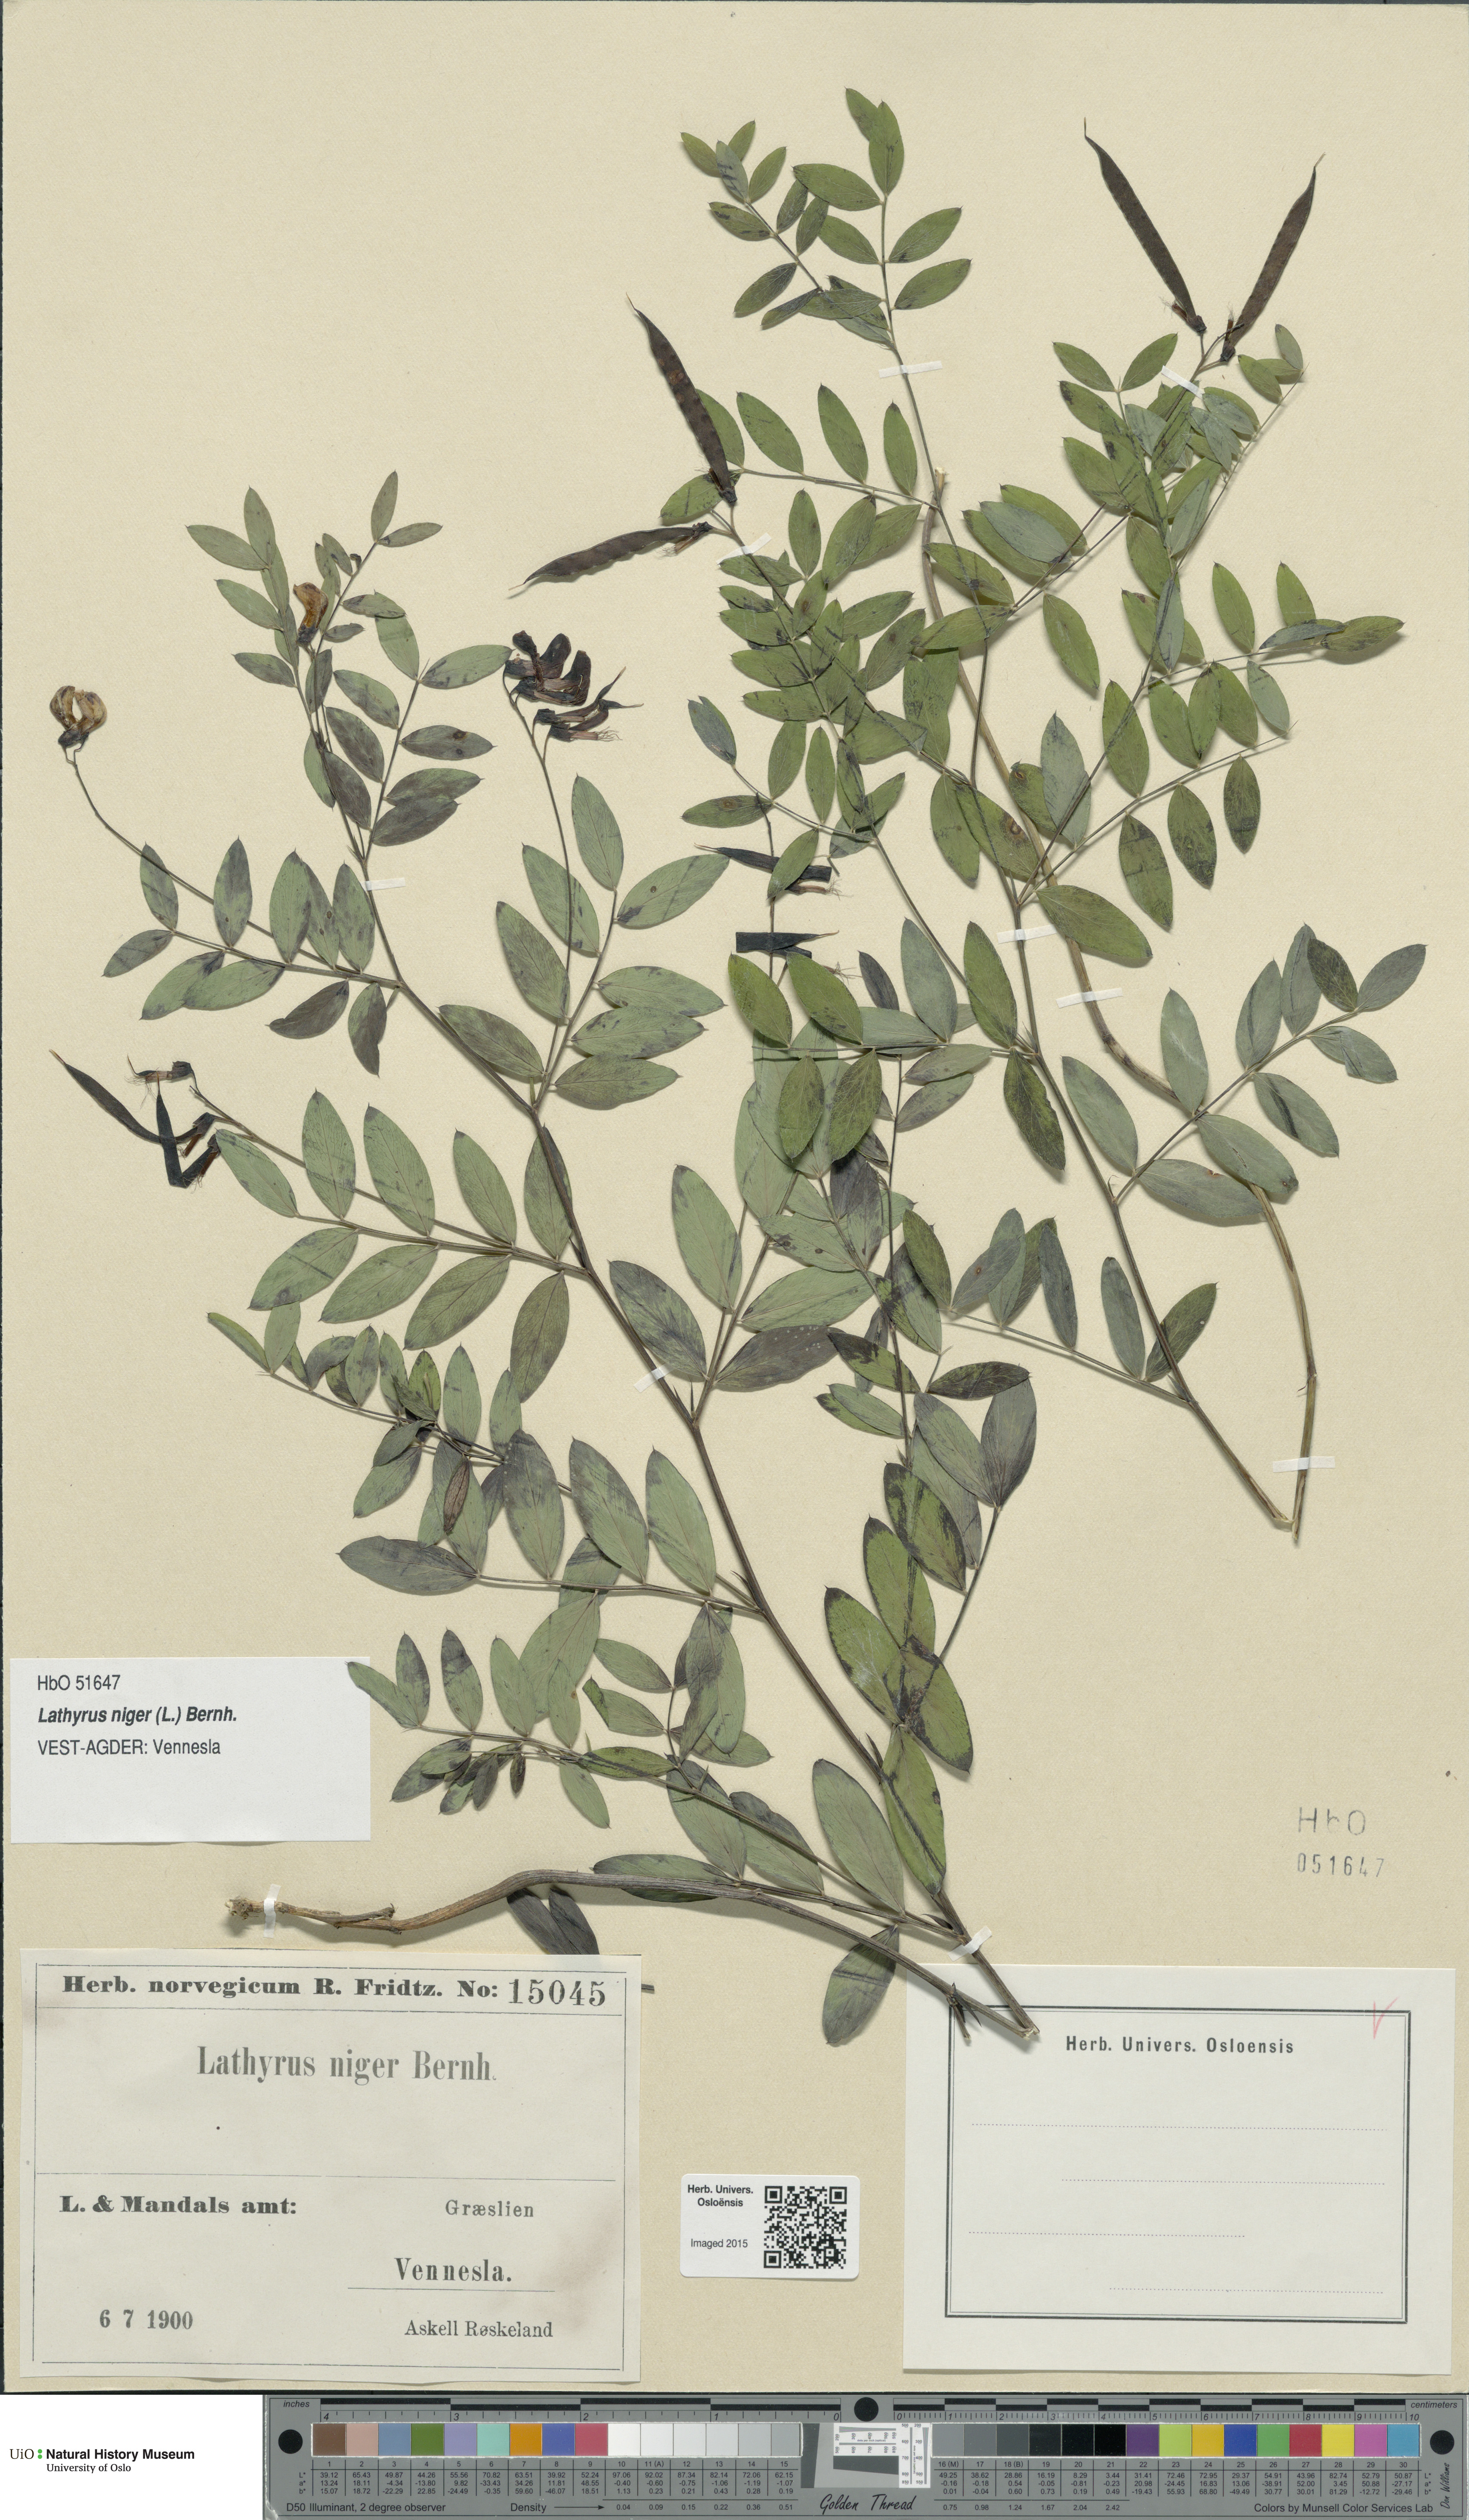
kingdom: Plantae
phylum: Tracheophyta
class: Magnoliopsida
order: Fabales
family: Fabaceae
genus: Lathyrus
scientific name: Lathyrus niger
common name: Black pea
